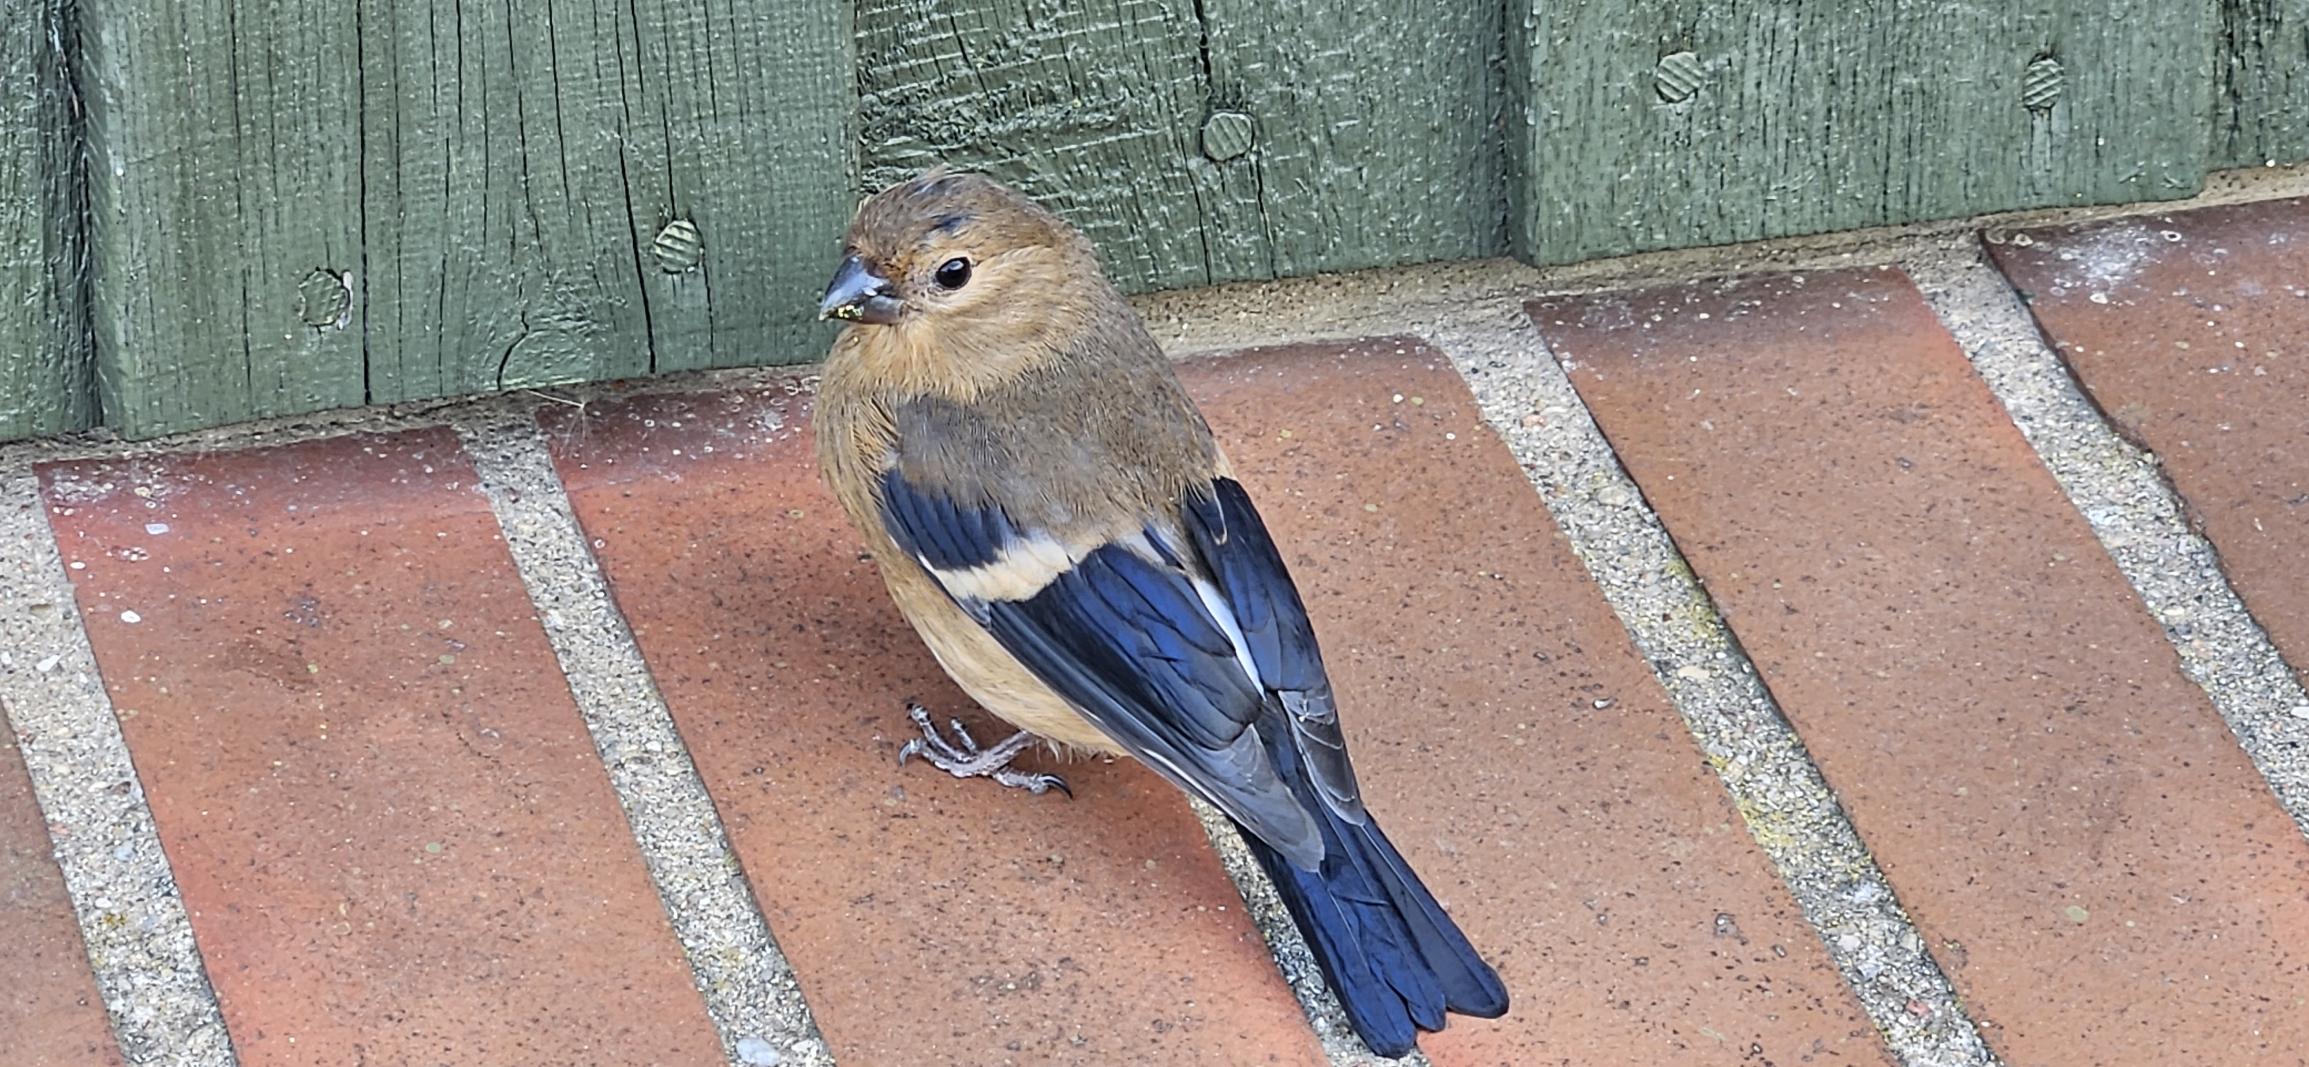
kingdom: Animalia
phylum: Chordata
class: Aves
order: Passeriformes
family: Fringillidae
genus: Pyrrhula
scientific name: Pyrrhula pyrrhula
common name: Dompap
